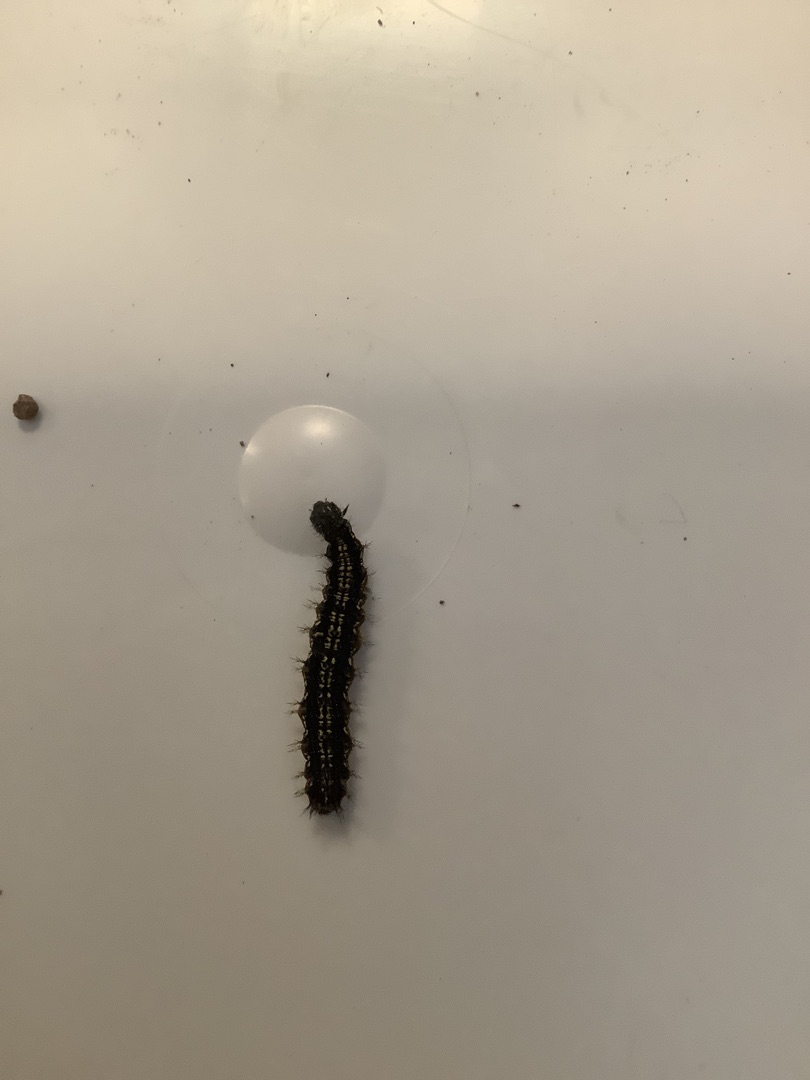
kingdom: Animalia
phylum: Arthropoda
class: Insecta
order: Lepidoptera
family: Nymphalidae
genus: Aglais
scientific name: Aglais urticae
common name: Nældens takvinge
